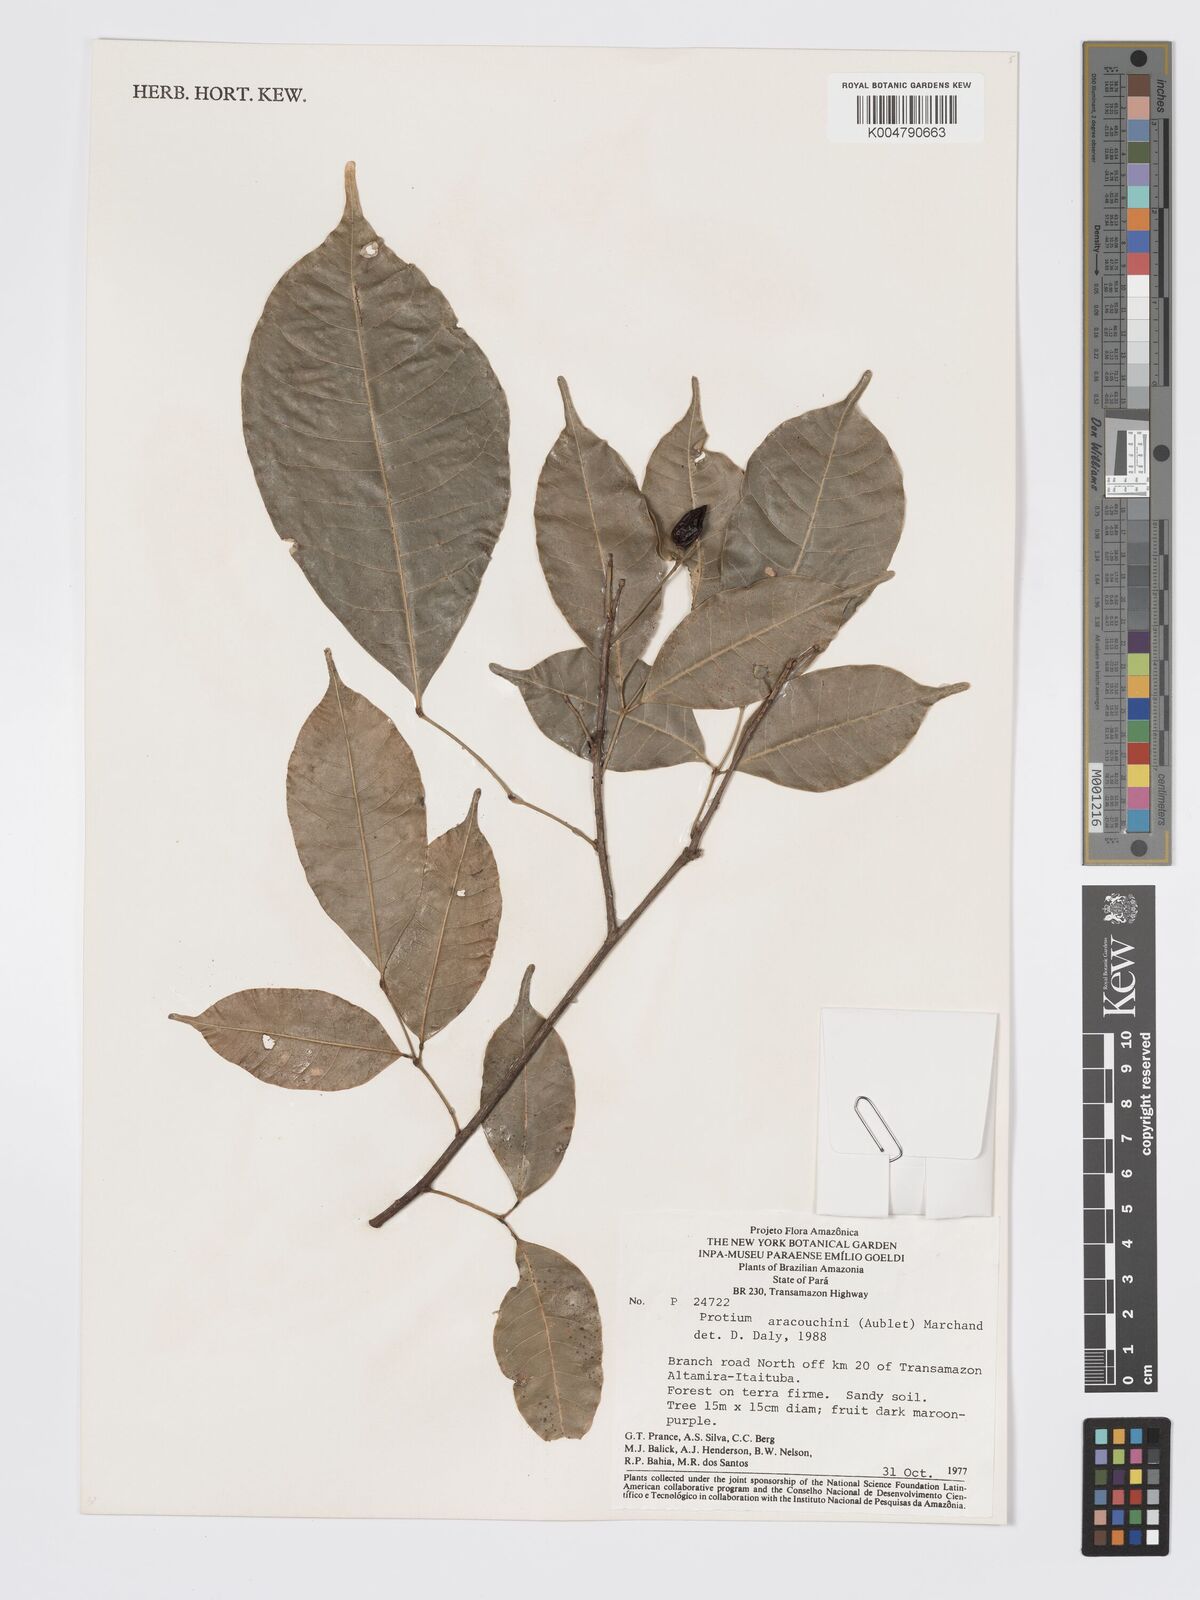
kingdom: Plantae
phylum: Tracheophyta
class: Magnoliopsida
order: Sapindales
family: Burseraceae
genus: Protium
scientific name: Protium aracouchini
